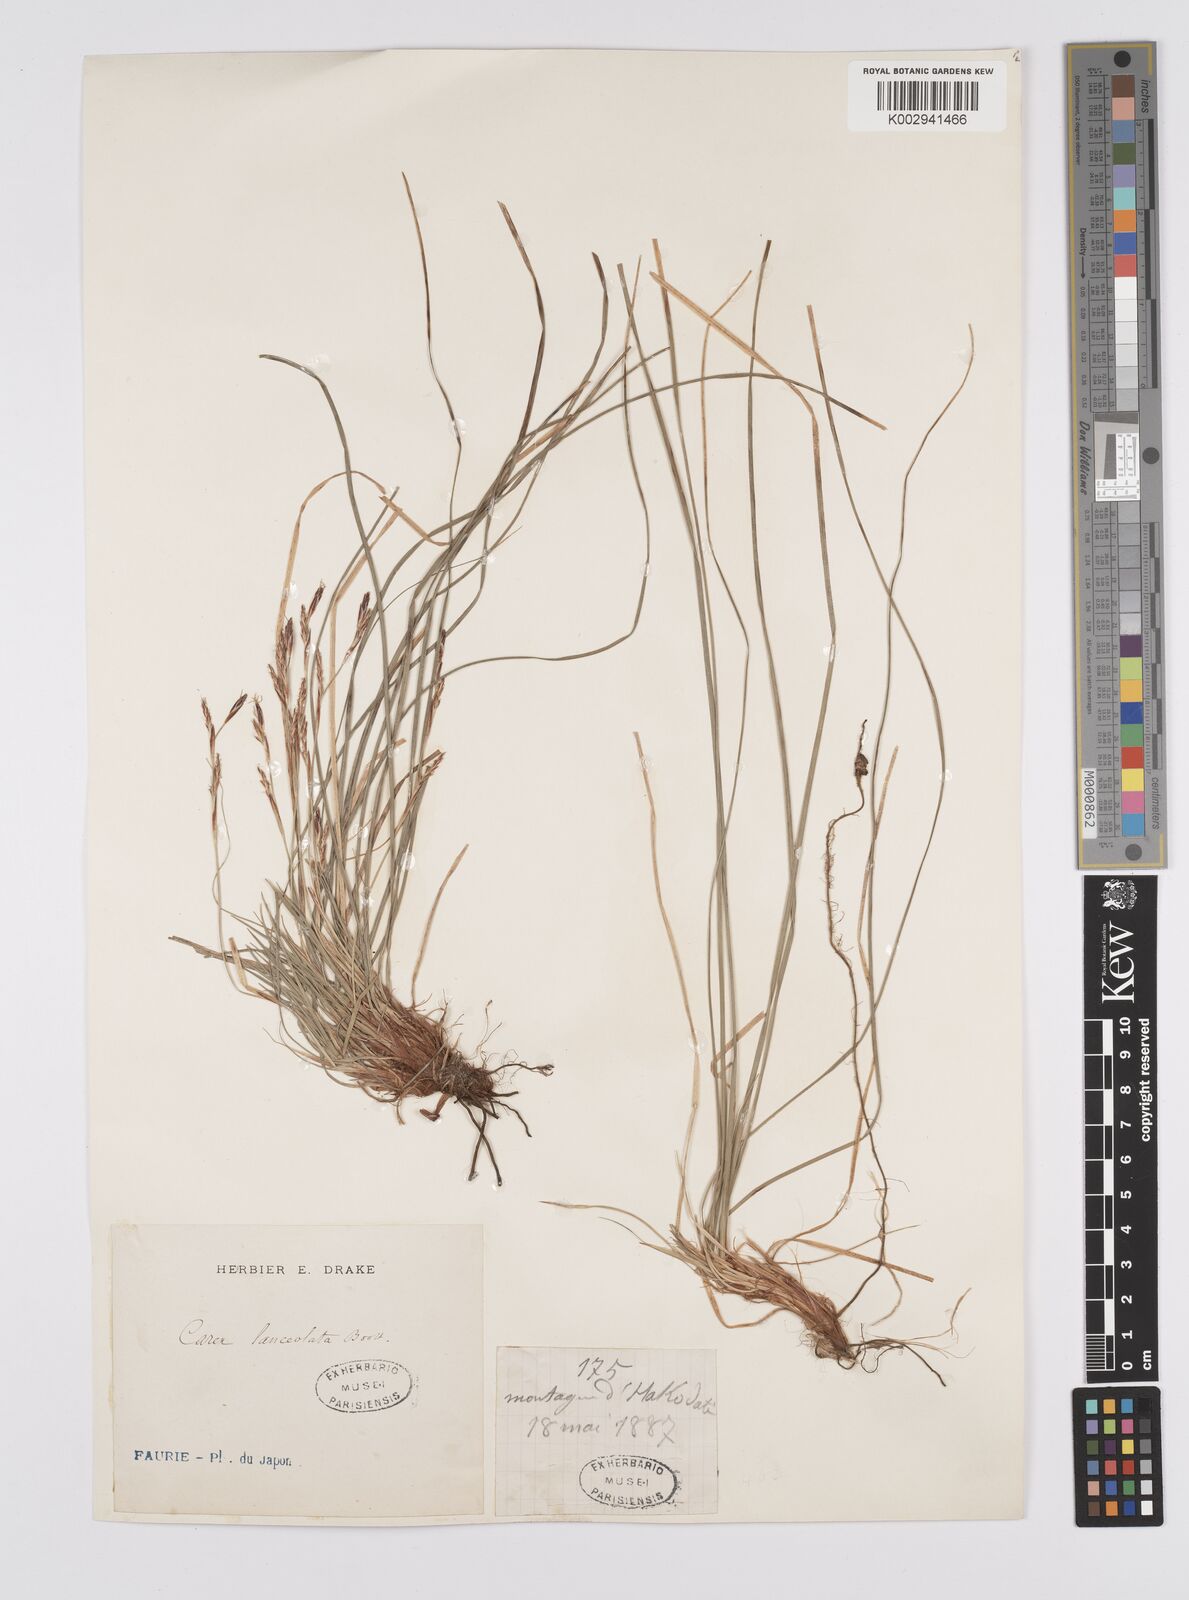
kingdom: Plantae
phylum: Tracheophyta
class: Liliopsida
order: Poales
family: Cyperaceae
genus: Carex
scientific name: Carex lanceolata
